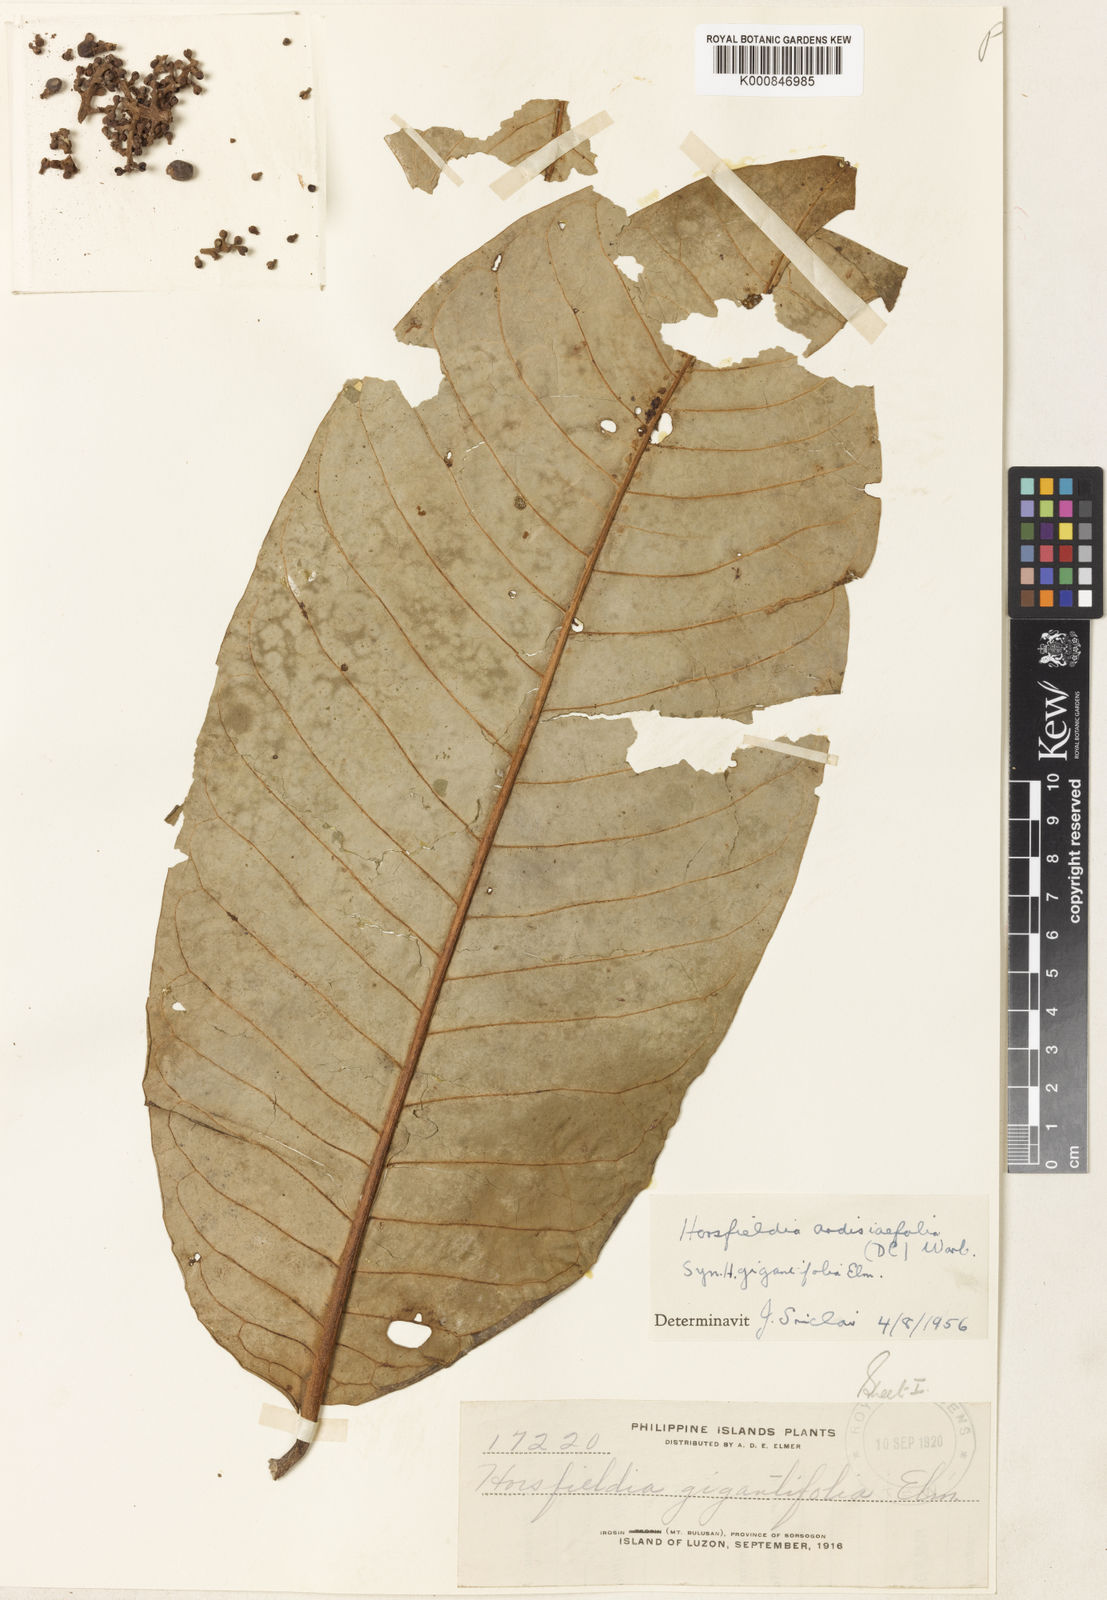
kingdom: Plantae
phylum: Tracheophyta
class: Magnoliopsida
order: Magnoliales
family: Myristicaceae
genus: Horsfieldia
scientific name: Horsfieldia ardisiifolia
